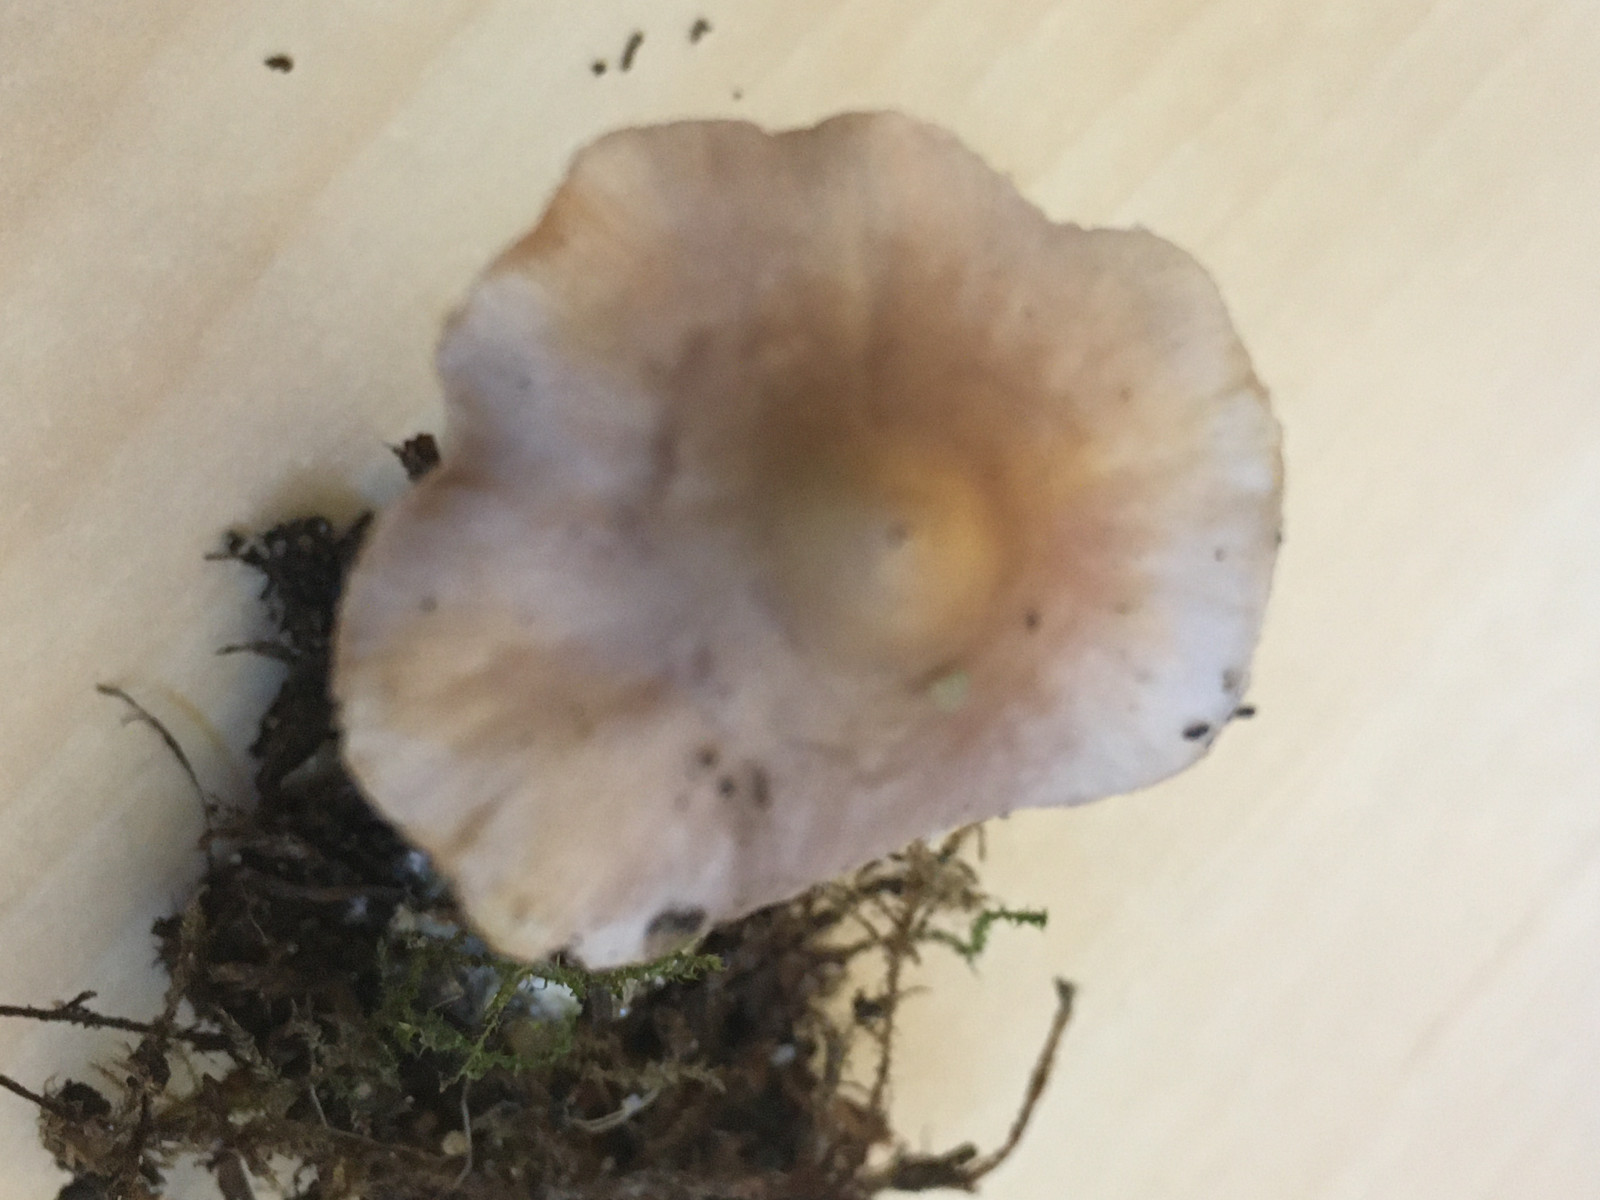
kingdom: Fungi
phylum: Basidiomycota
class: Agaricomycetes
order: Agaricales
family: Inocybaceae
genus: Inocybe
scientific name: Inocybe geophylla
